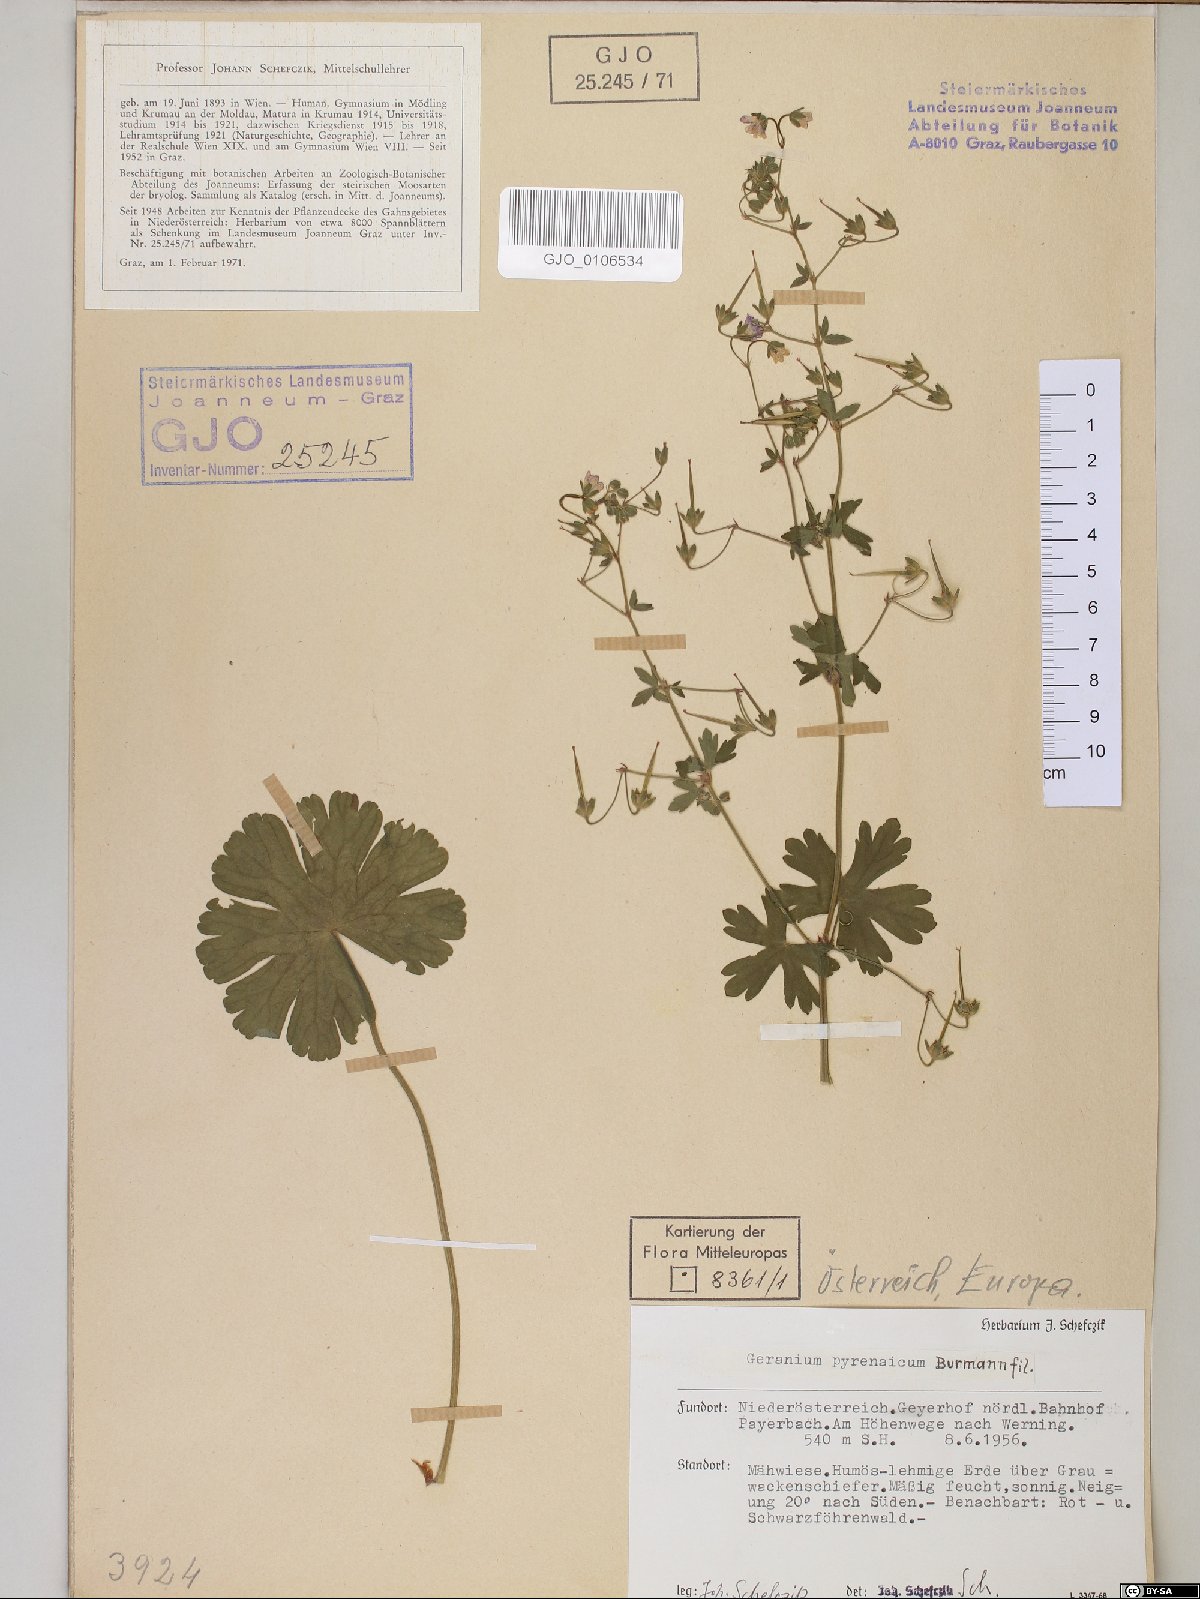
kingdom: Plantae
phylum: Tracheophyta
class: Magnoliopsida
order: Geraniales
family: Geraniaceae
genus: Geranium
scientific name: Geranium pyrenaicum
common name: Hedgerow crane's-bill
